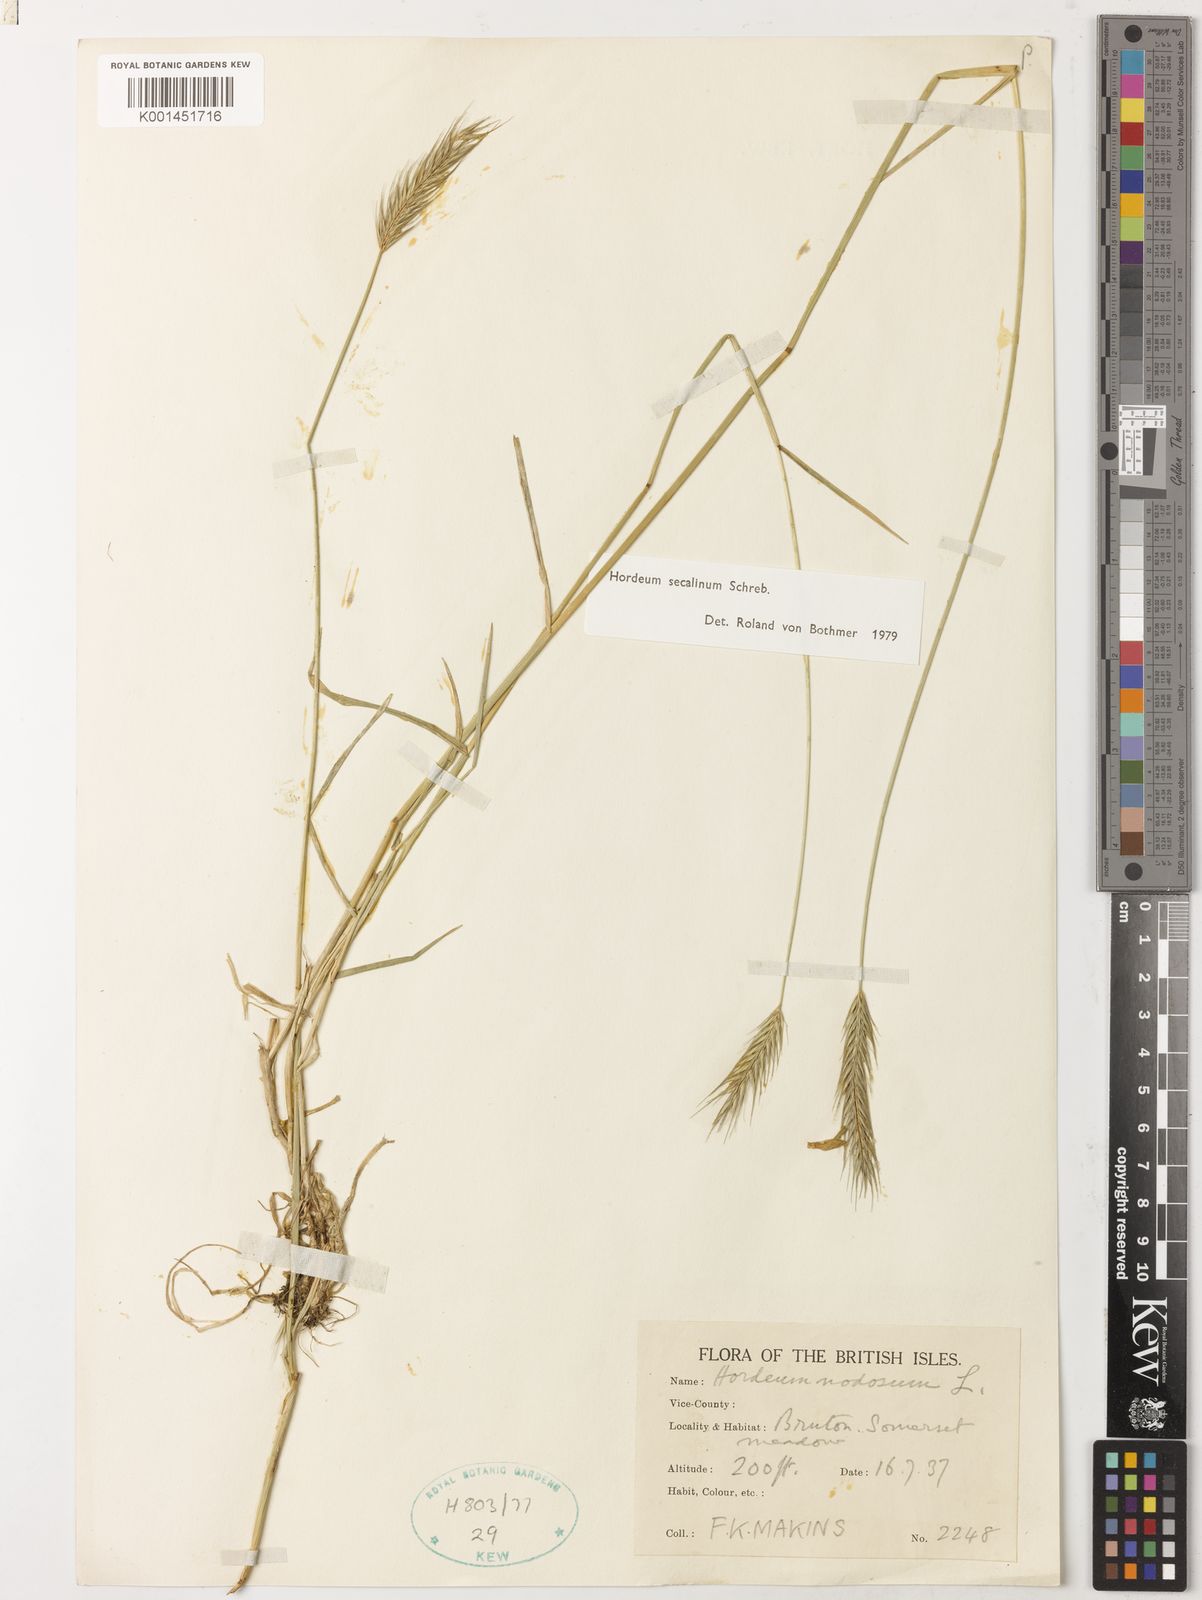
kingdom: Plantae
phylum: Tracheophyta
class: Liliopsida
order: Poales
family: Poaceae
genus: Hordeum
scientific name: Hordeum secalinum
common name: Meadow barley
